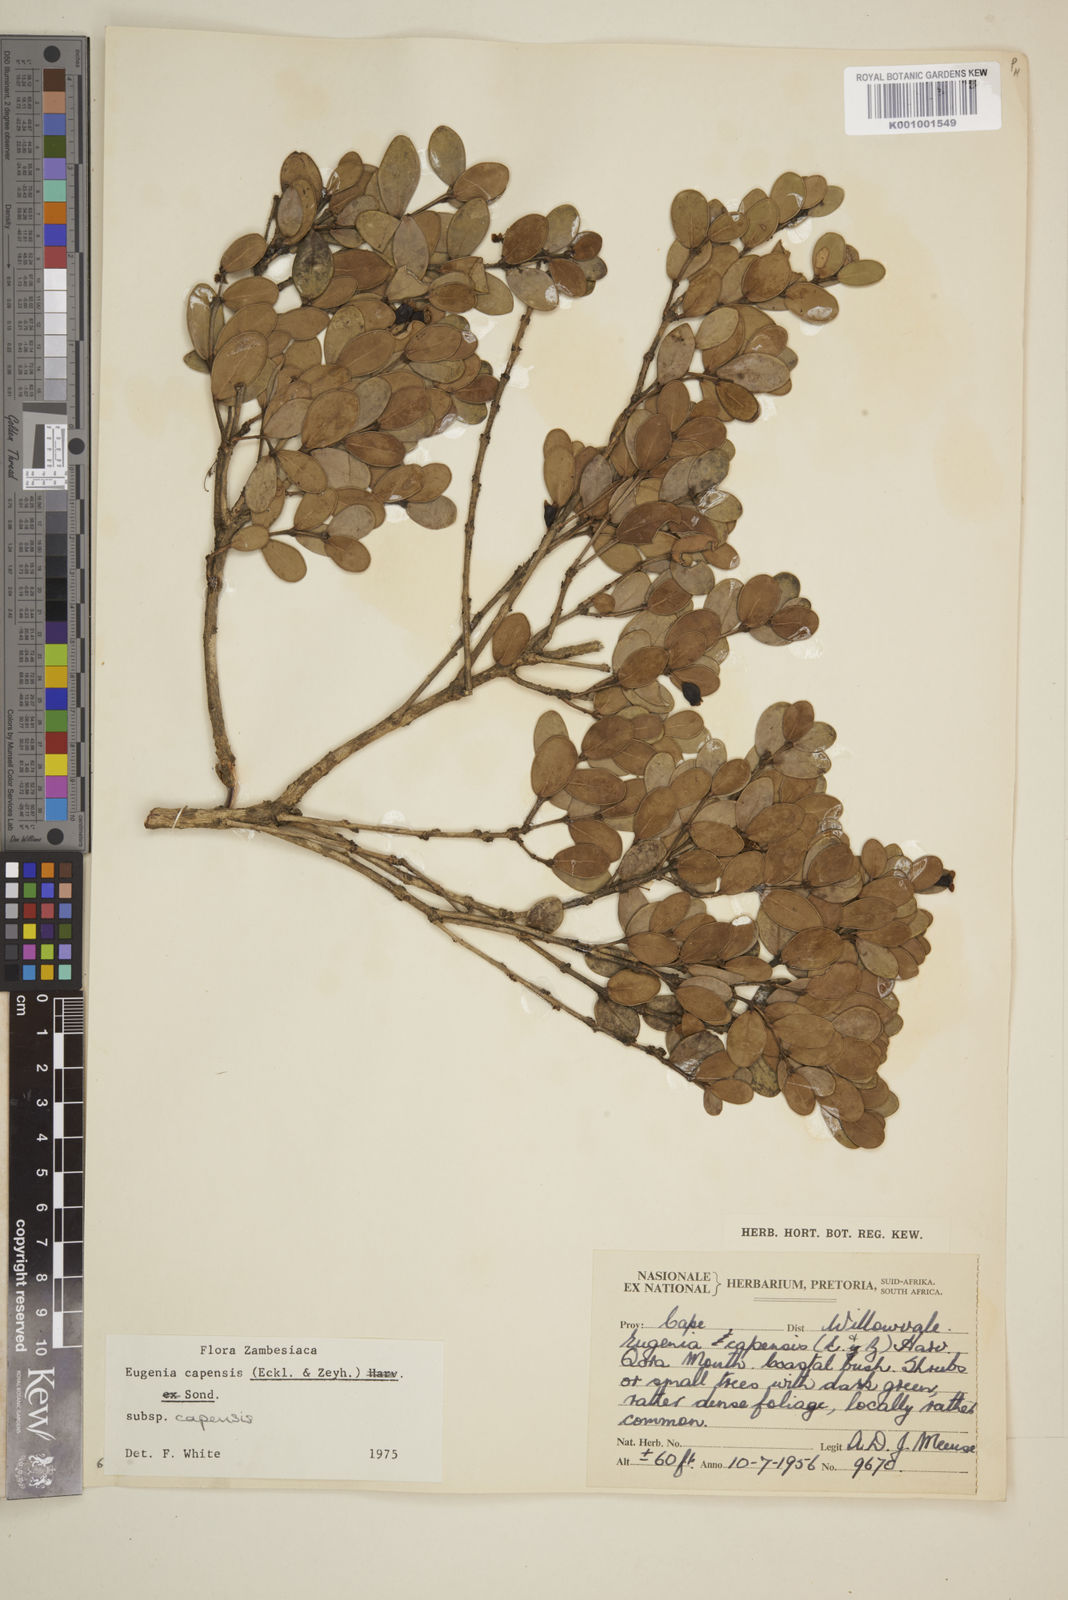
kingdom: Plantae
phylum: Tracheophyta
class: Magnoliopsida
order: Myrtales
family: Myrtaceae
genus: Eugenia
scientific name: Eugenia capensis
